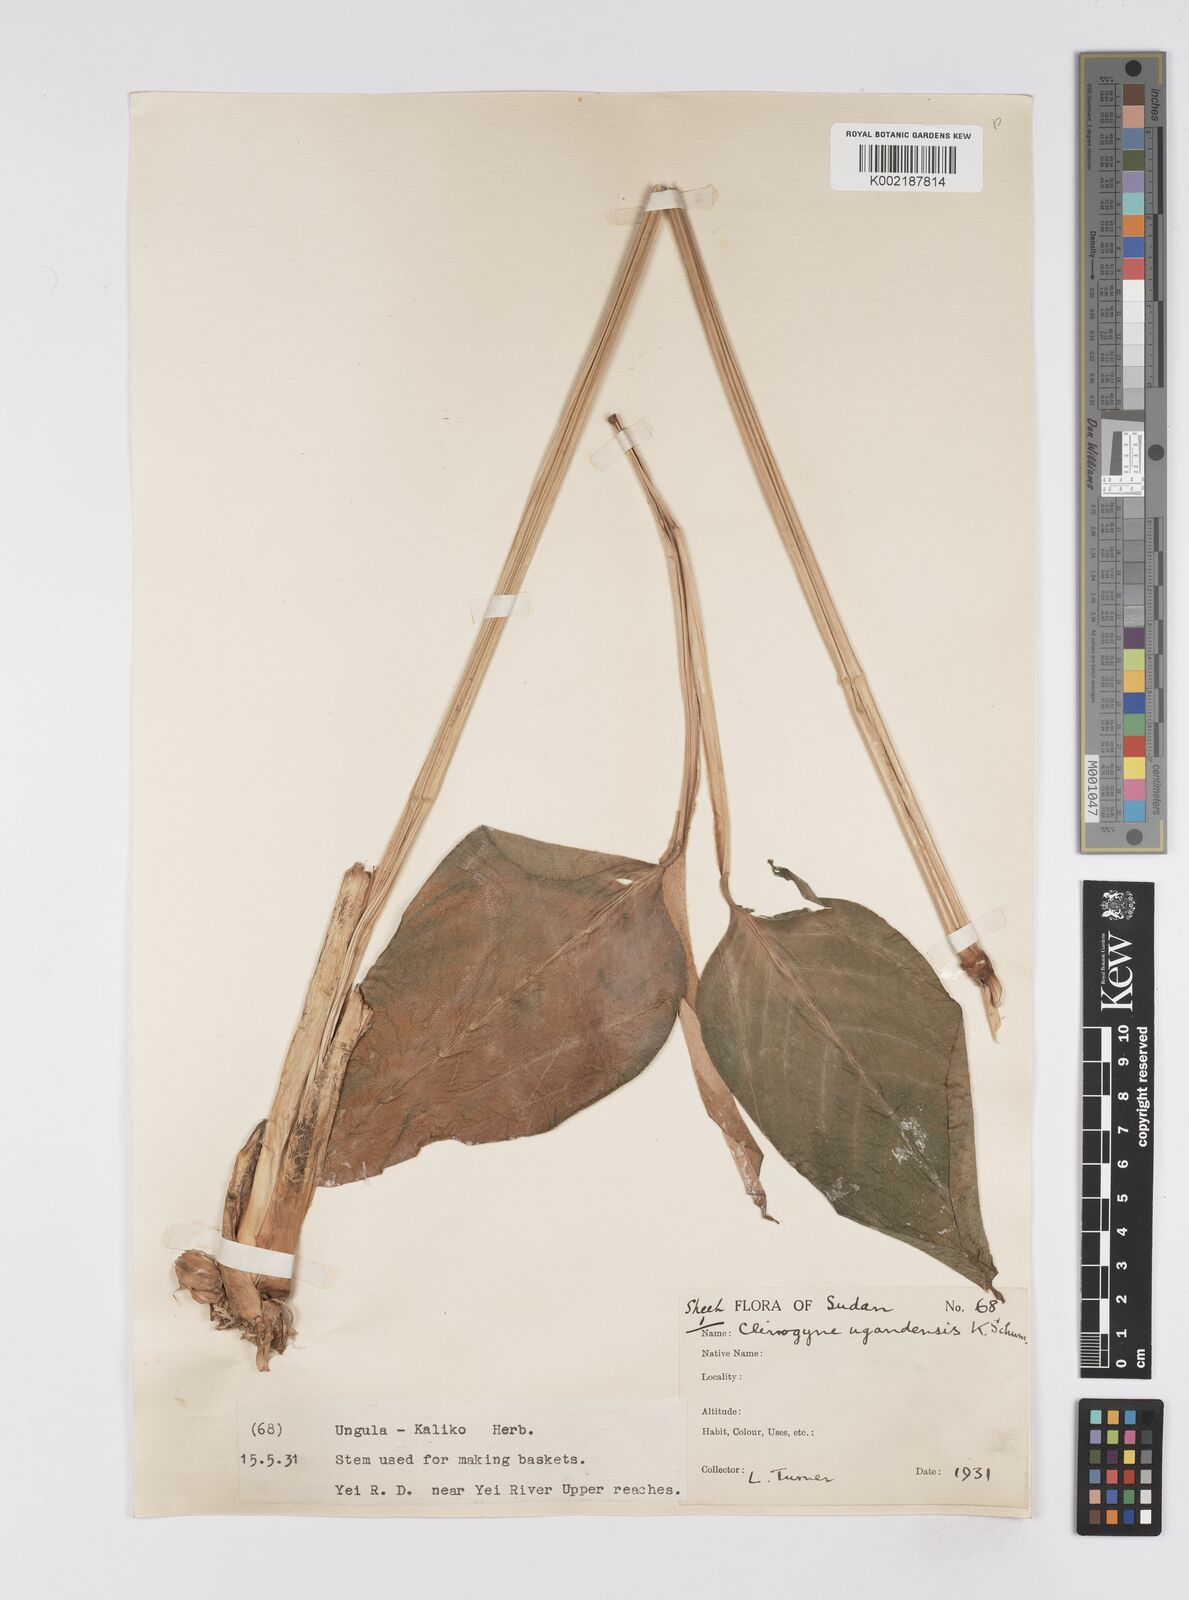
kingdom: Plantae
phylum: Tracheophyta
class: Liliopsida
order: Zingiberales
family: Marantaceae
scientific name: Marantaceae
